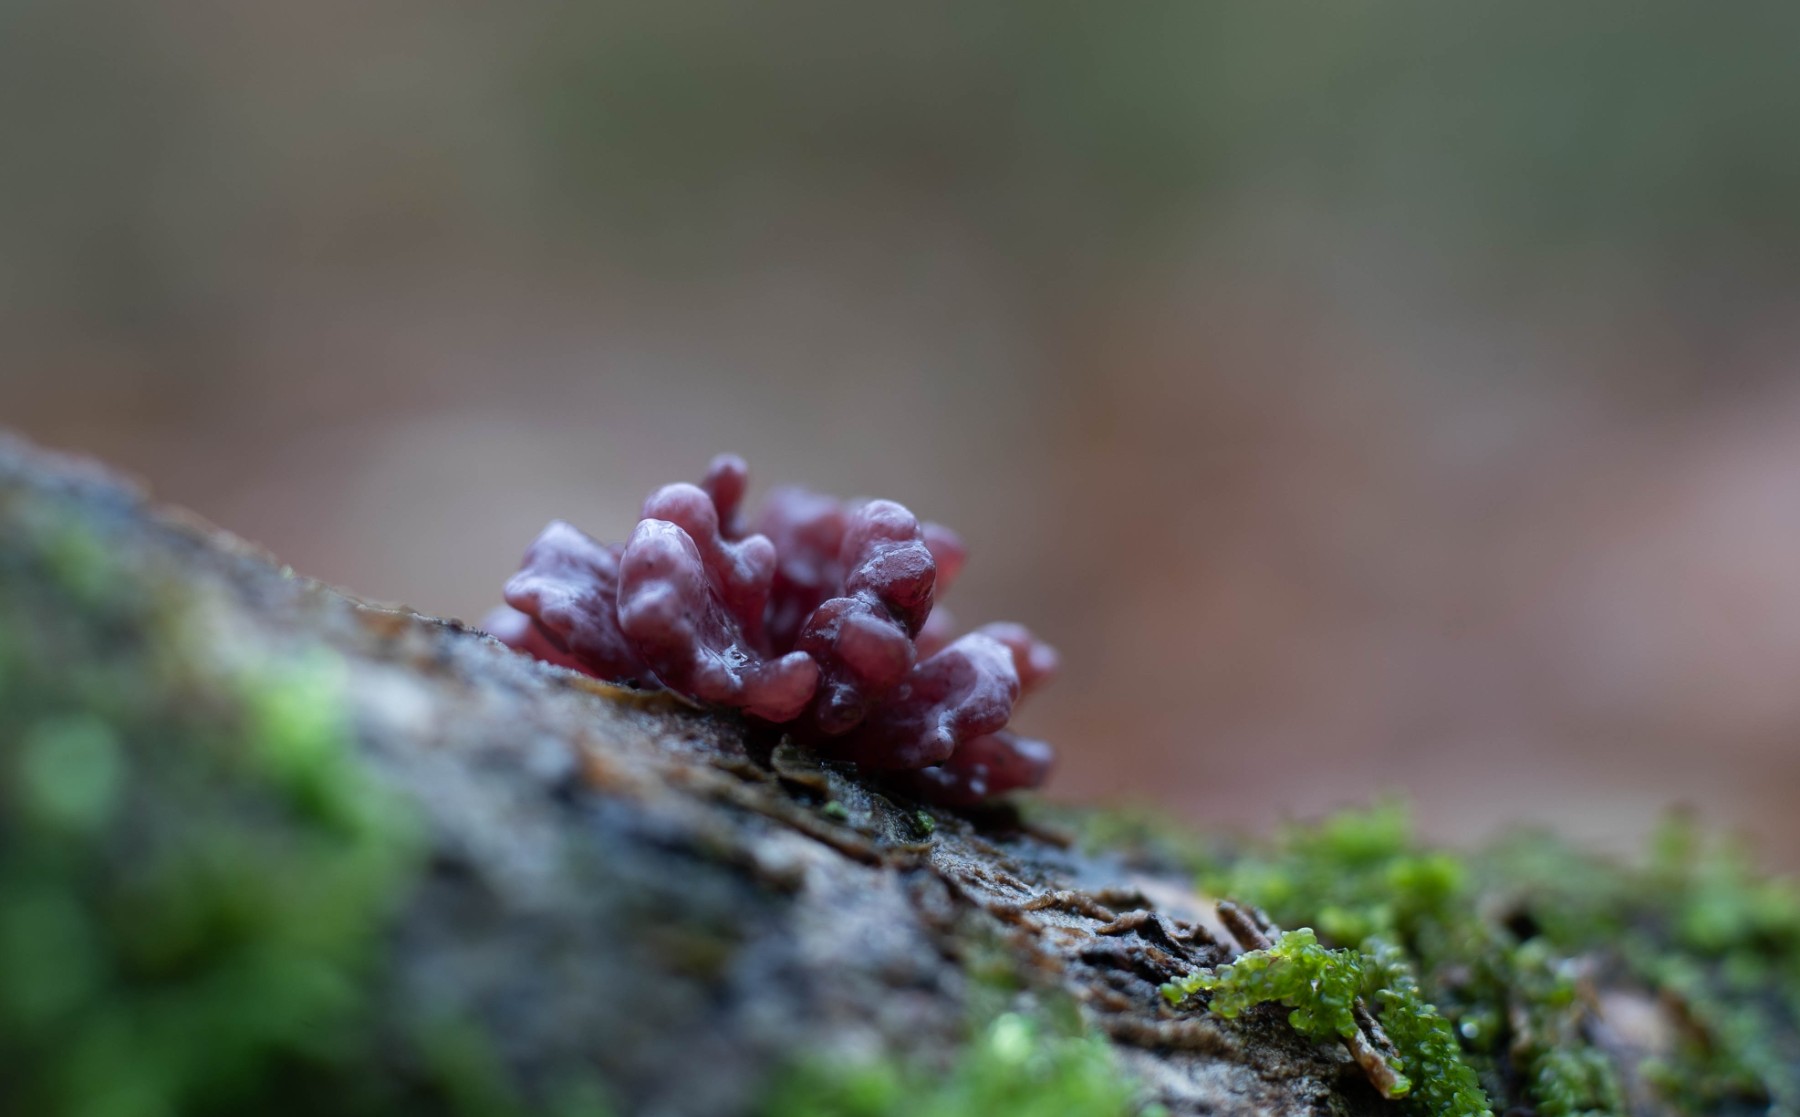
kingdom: Fungi
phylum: Ascomycota
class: Leotiomycetes
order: Helotiales
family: Gelatinodiscaceae
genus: Ascocoryne
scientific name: Ascocoryne sarcoides
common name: rødlilla sejskive
